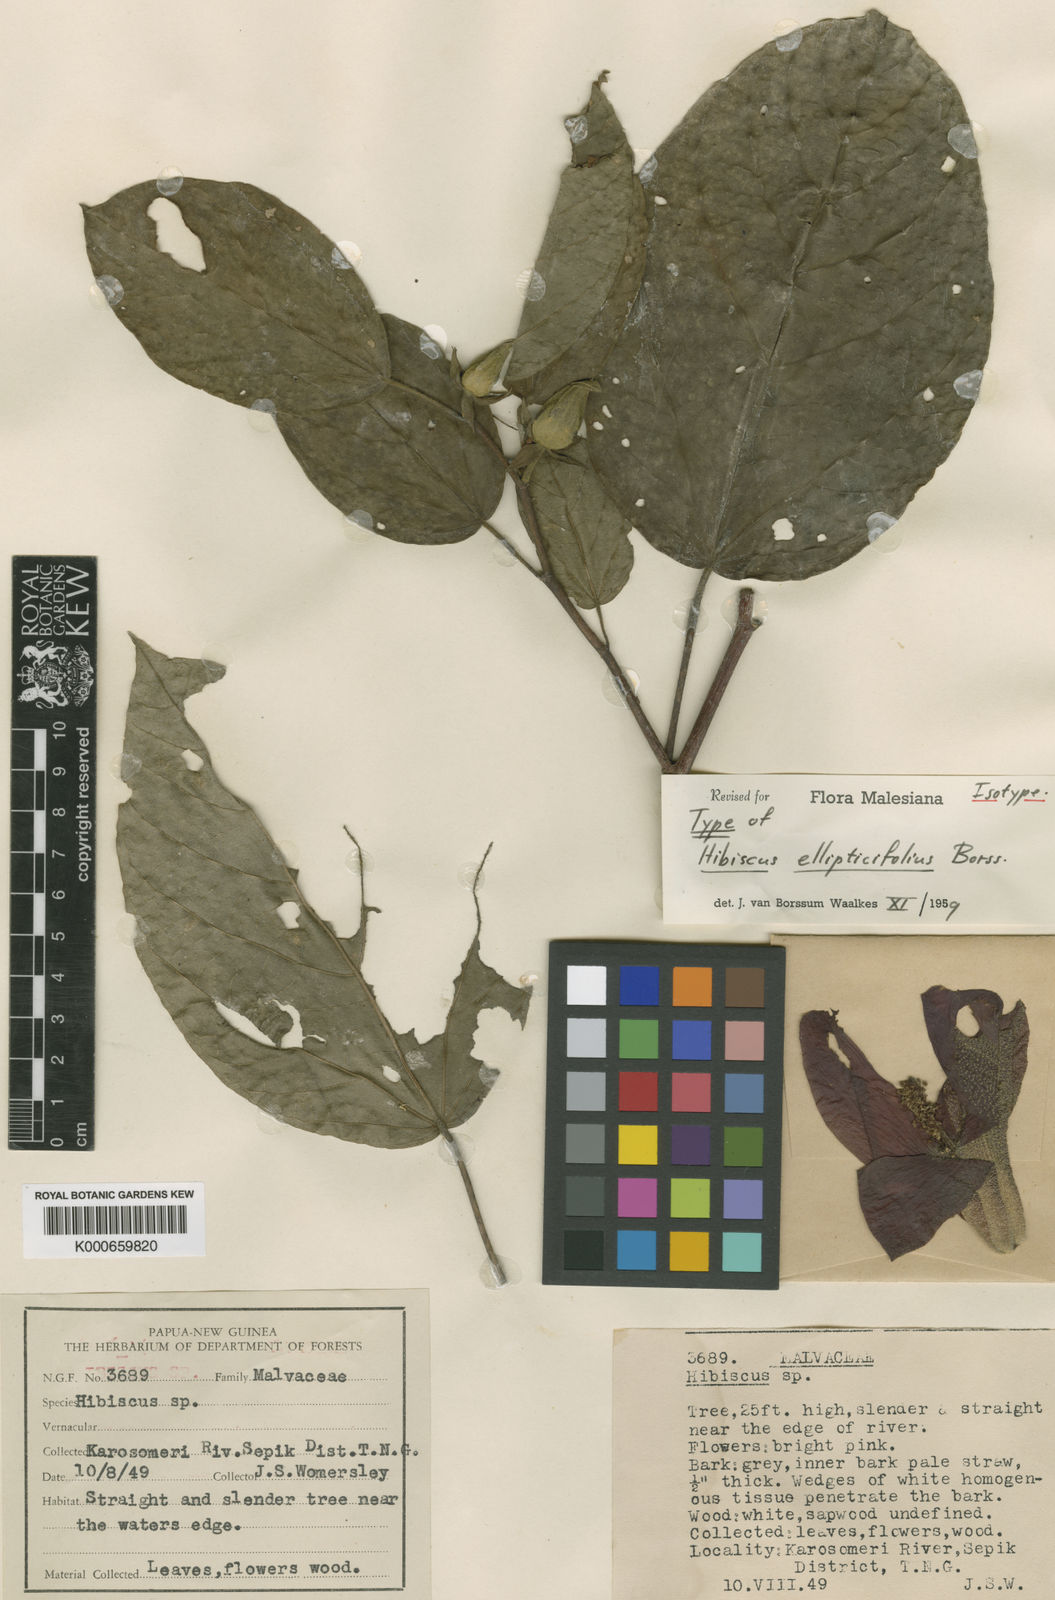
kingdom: Plantae
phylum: Tracheophyta
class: Magnoliopsida
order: Malvales
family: Malvaceae
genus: Talipariti
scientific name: Talipariti ellipticifolium
